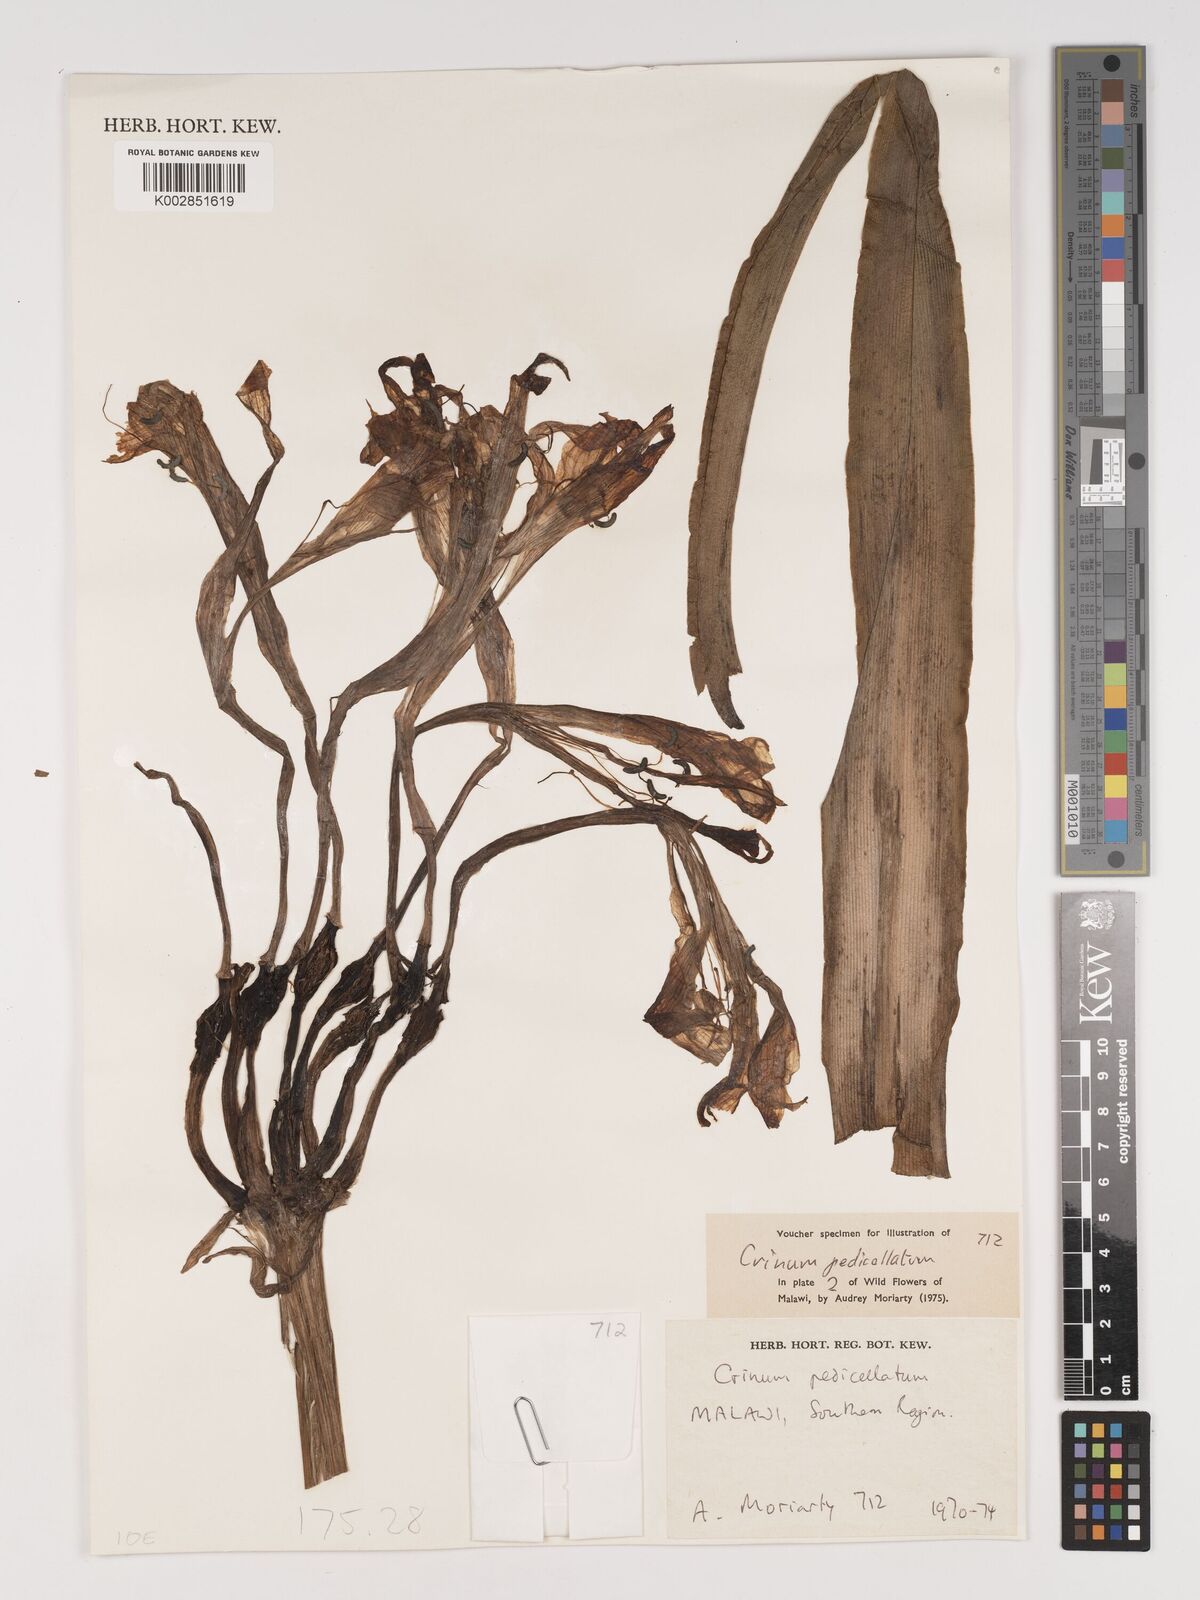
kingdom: Plantae
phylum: Tracheophyta
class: Liliopsida
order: Asparagales
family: Amaryllidaceae
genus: Crinum
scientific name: Crinum macowanii
